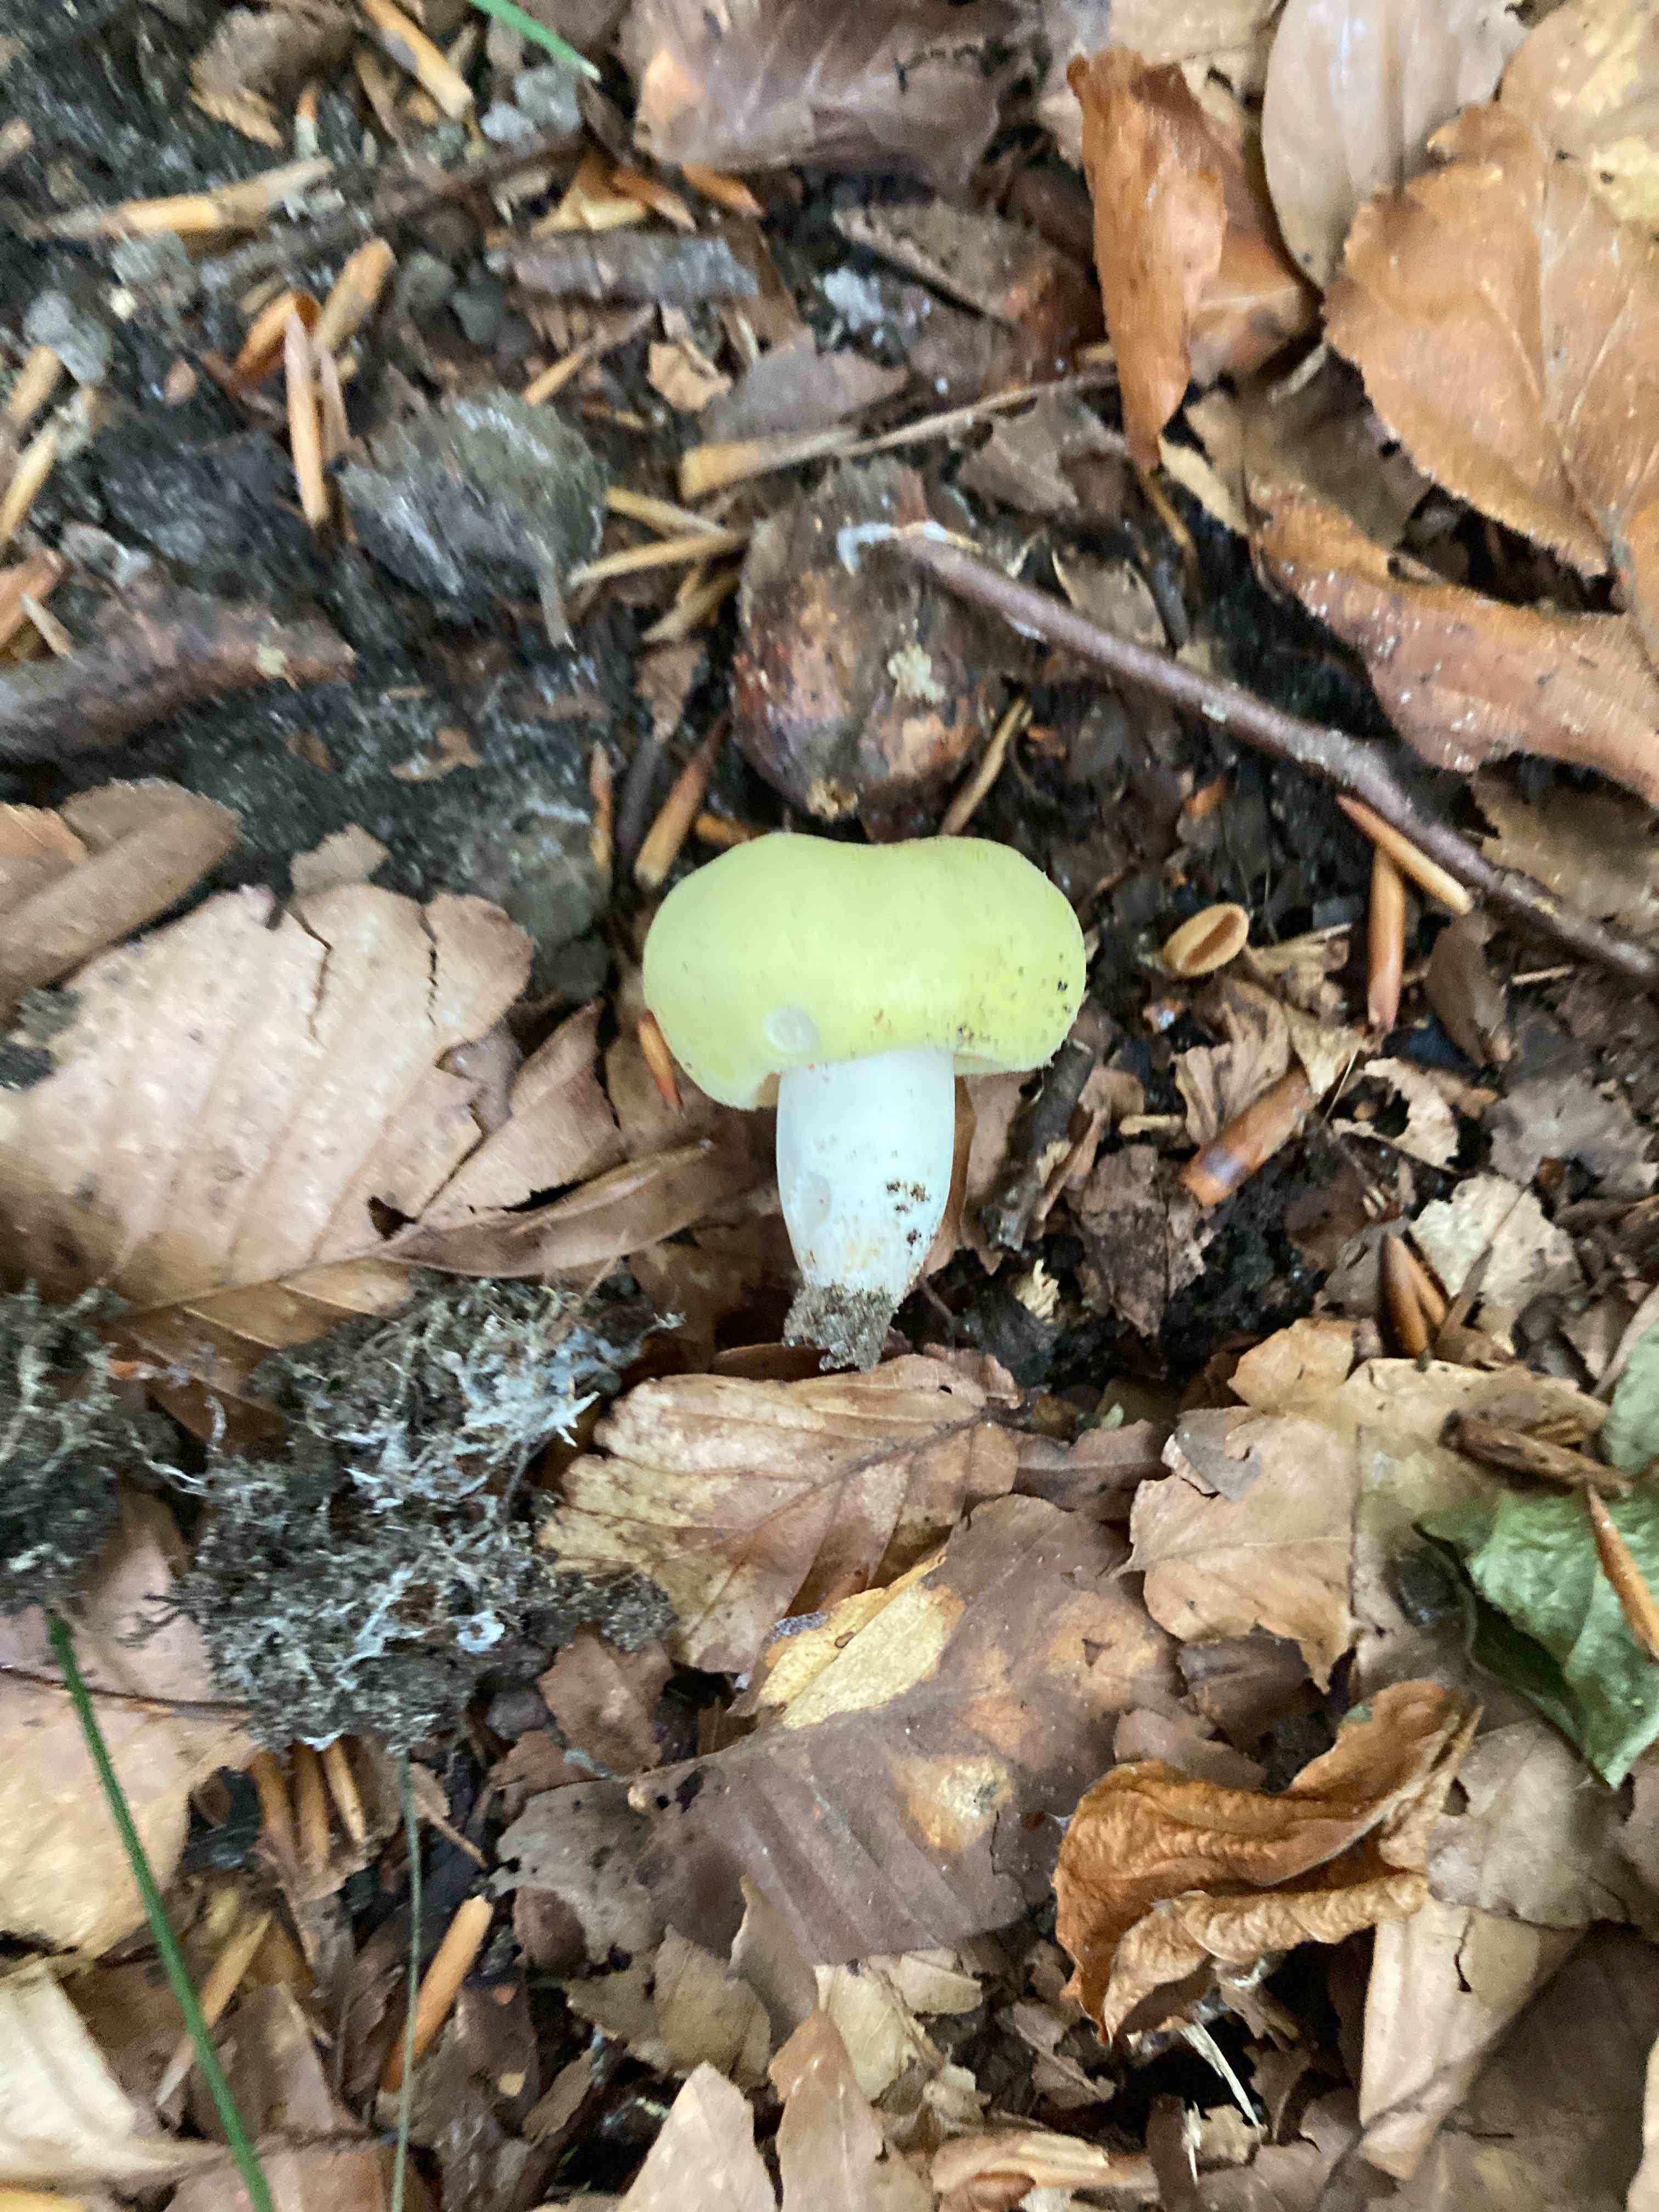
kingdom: Fungi
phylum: Basidiomycota
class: Agaricomycetes
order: Russulales
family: Russulaceae
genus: Russula
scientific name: Russula violeipes
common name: ferskengul skørhat
